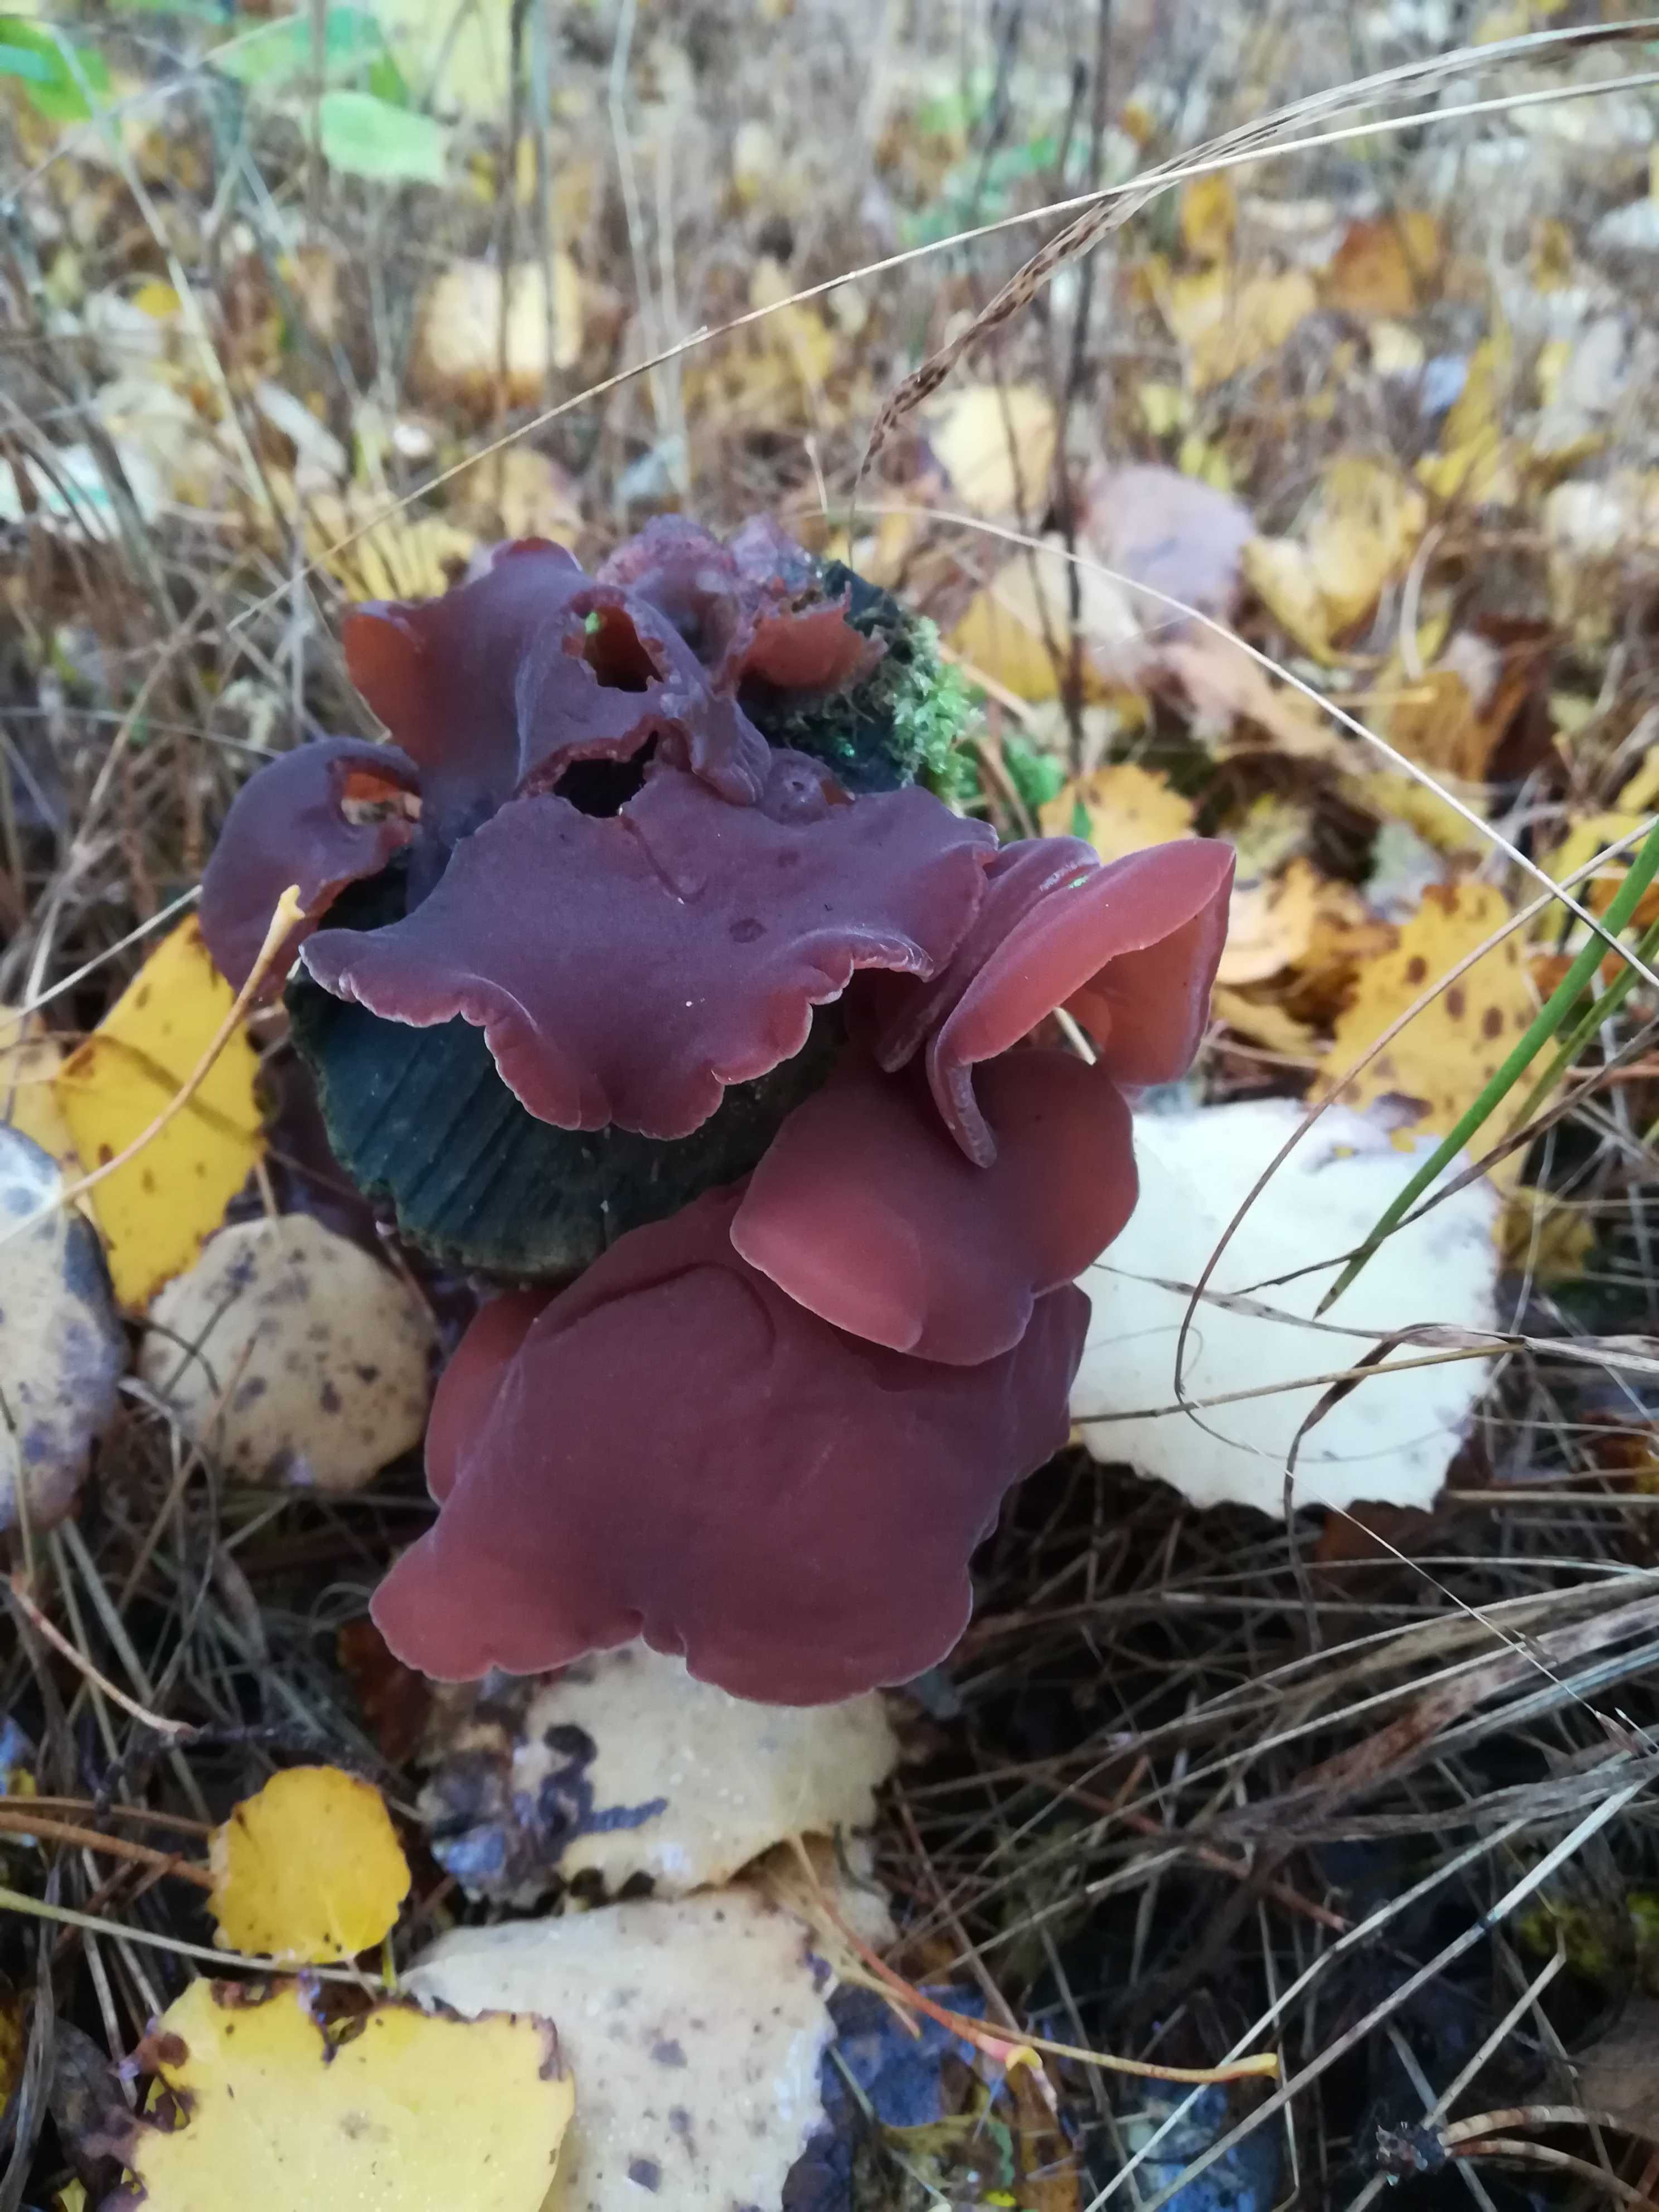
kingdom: Fungi
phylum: Basidiomycota
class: Agaricomycetes
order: Auriculariales
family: Auriculariaceae
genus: Auricularia
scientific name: Auricularia auricula-judae
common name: almindelig judasøre
